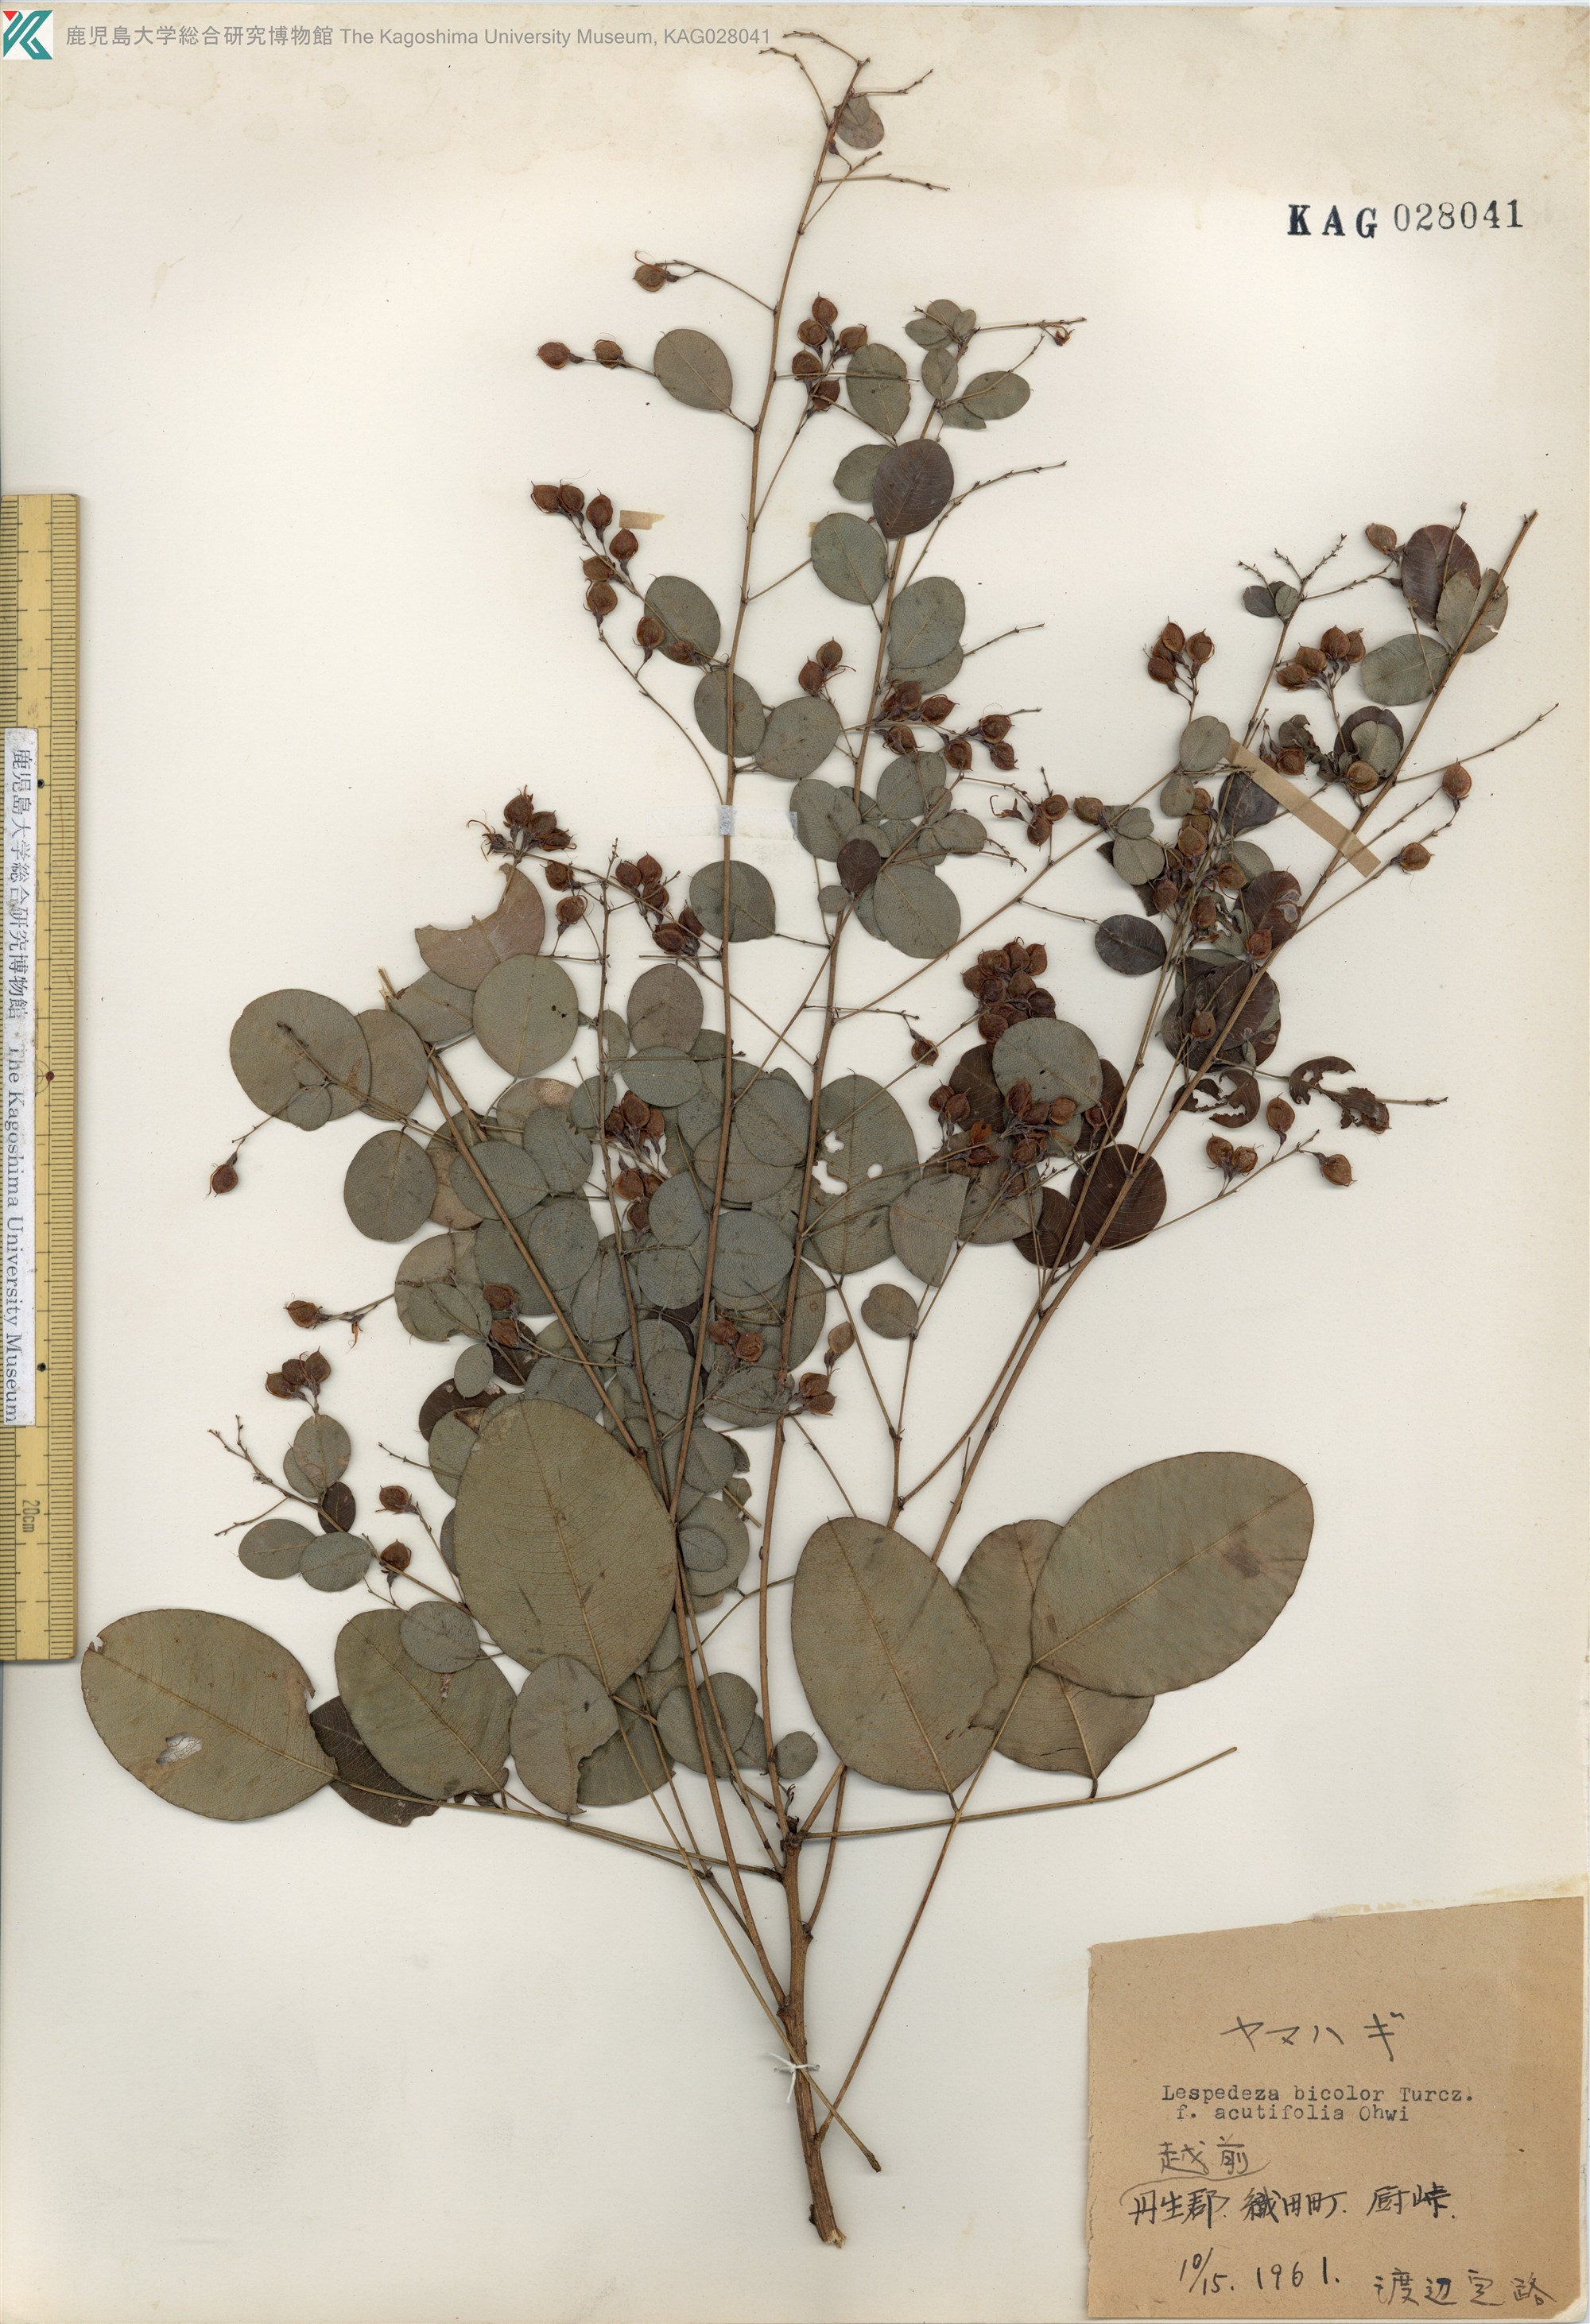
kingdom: Plantae
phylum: Tracheophyta
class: Magnoliopsida
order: Fabales
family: Fabaceae
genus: Lespedeza
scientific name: Lespedeza bicolor
